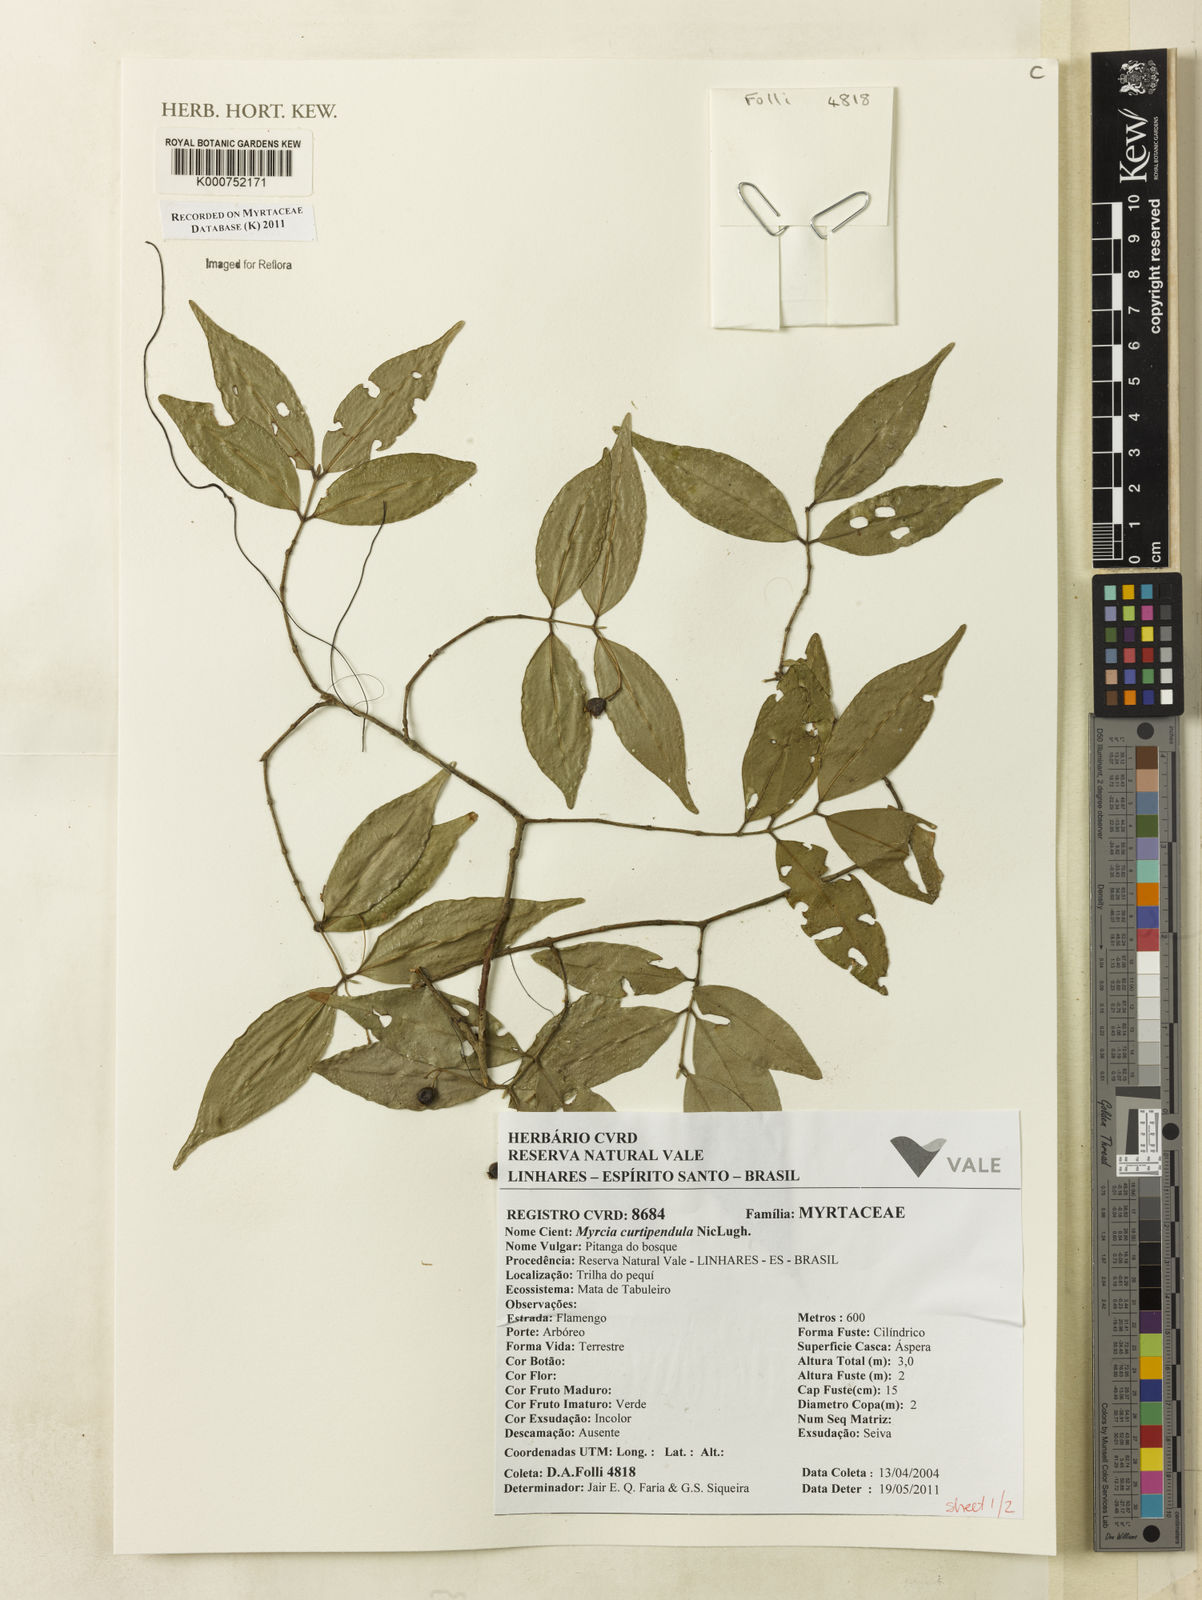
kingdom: Plantae
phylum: Tracheophyta
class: Magnoliopsida
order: Myrtales
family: Myrtaceae
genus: Myrcia
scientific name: Myrcia curtipendula
